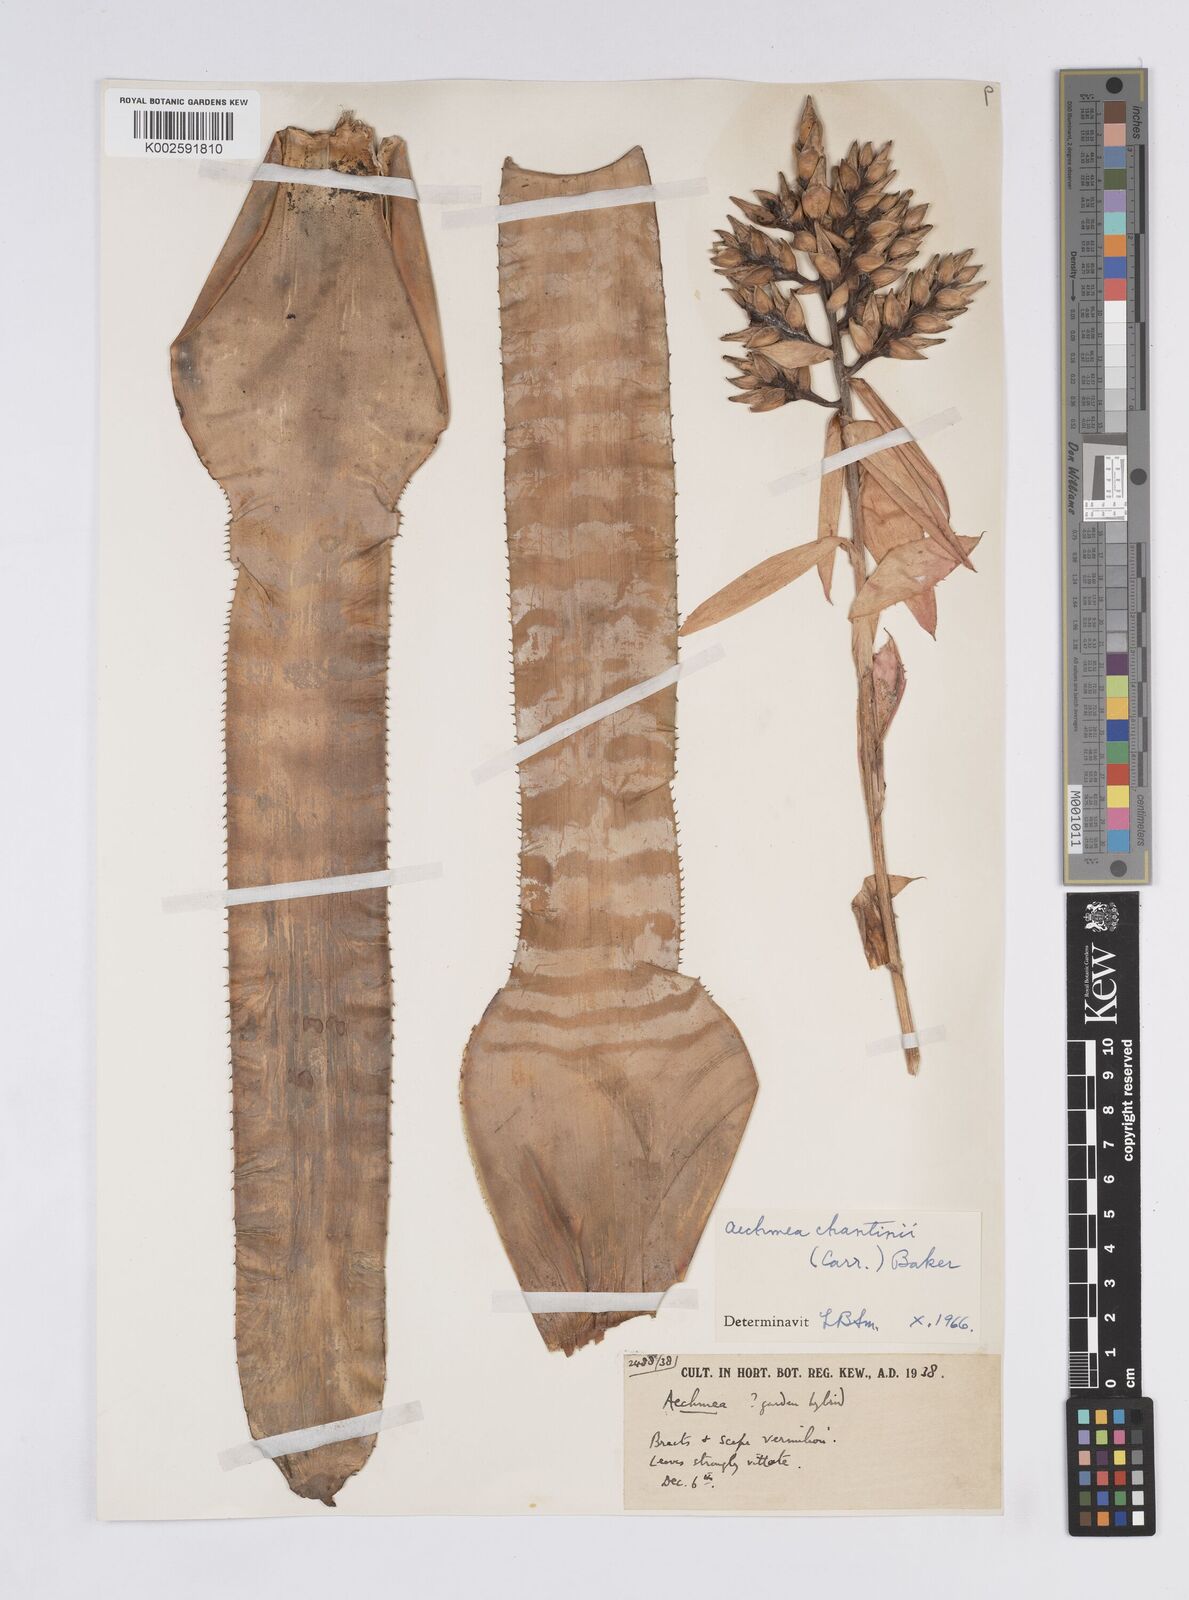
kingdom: Plantae
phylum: Tracheophyta
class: Liliopsida
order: Poales
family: Bromeliaceae
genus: Aechmea
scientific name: Aechmea chantinii
